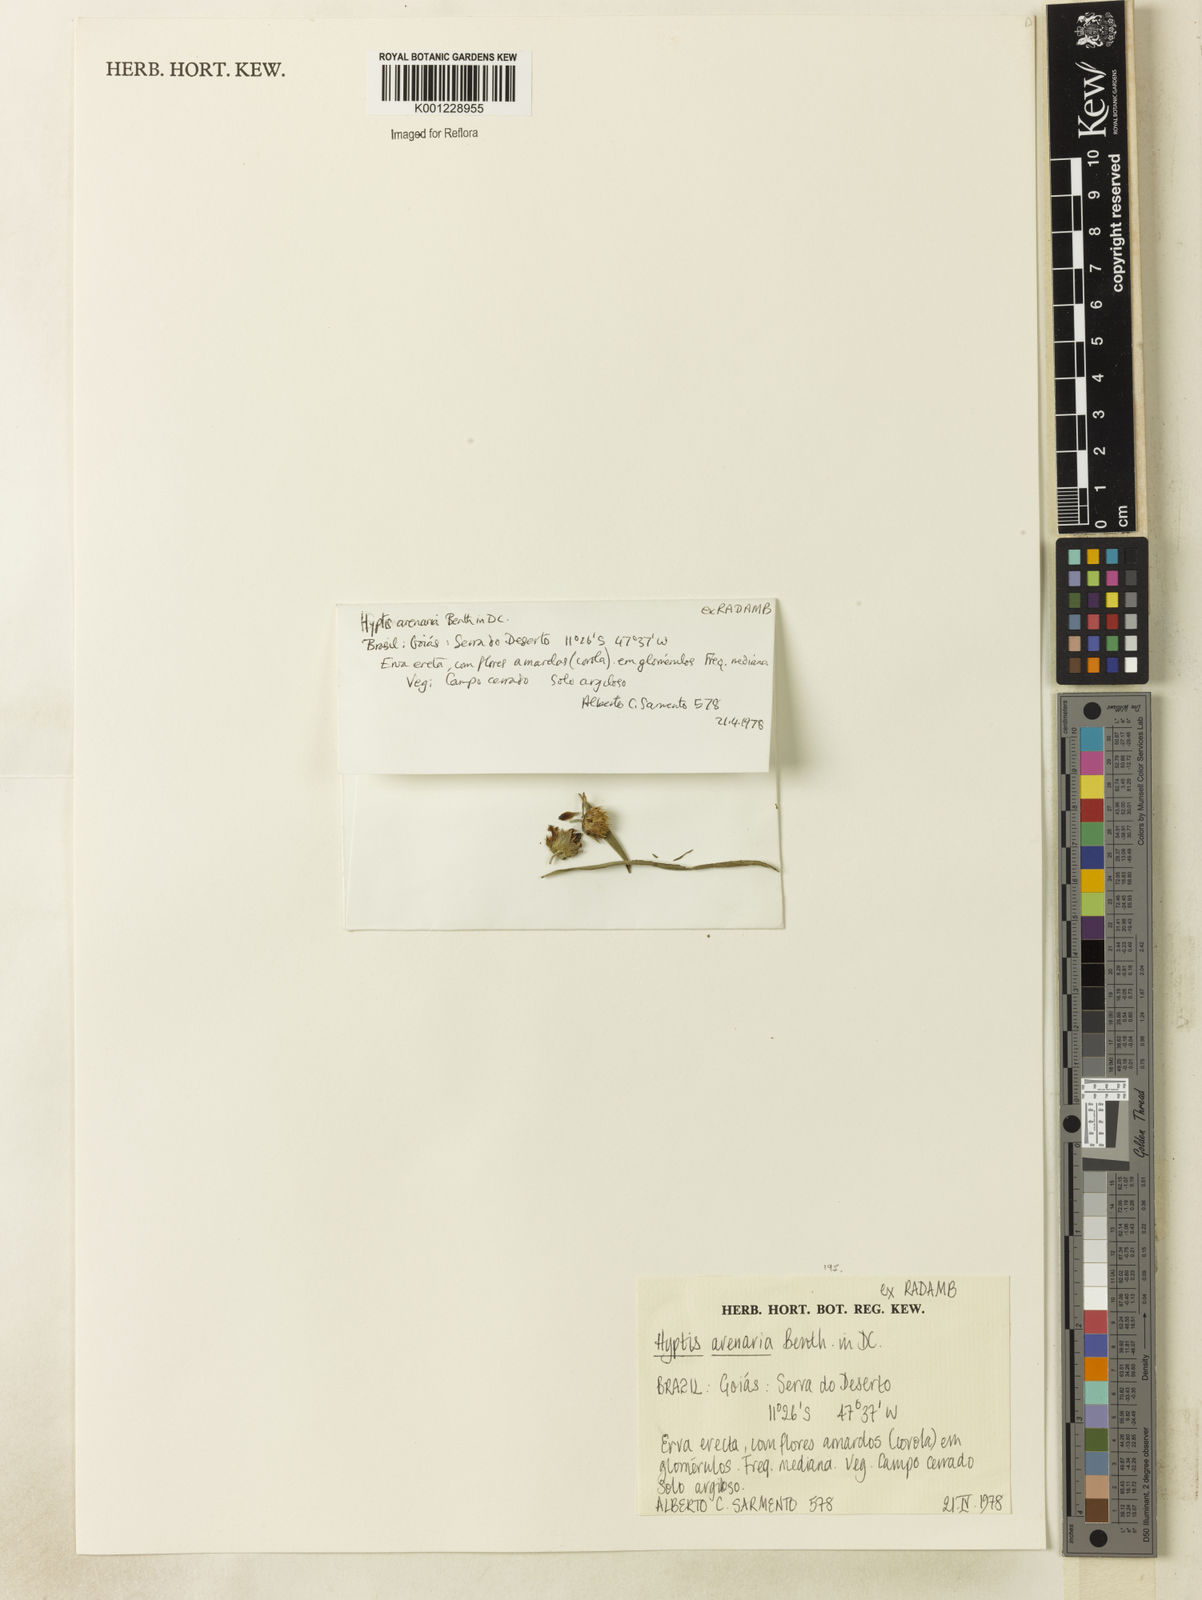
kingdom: Plantae
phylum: Tracheophyta
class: Magnoliopsida
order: Lamiales
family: Lamiaceae
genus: Hyptis
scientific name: Hyptis arenaria
